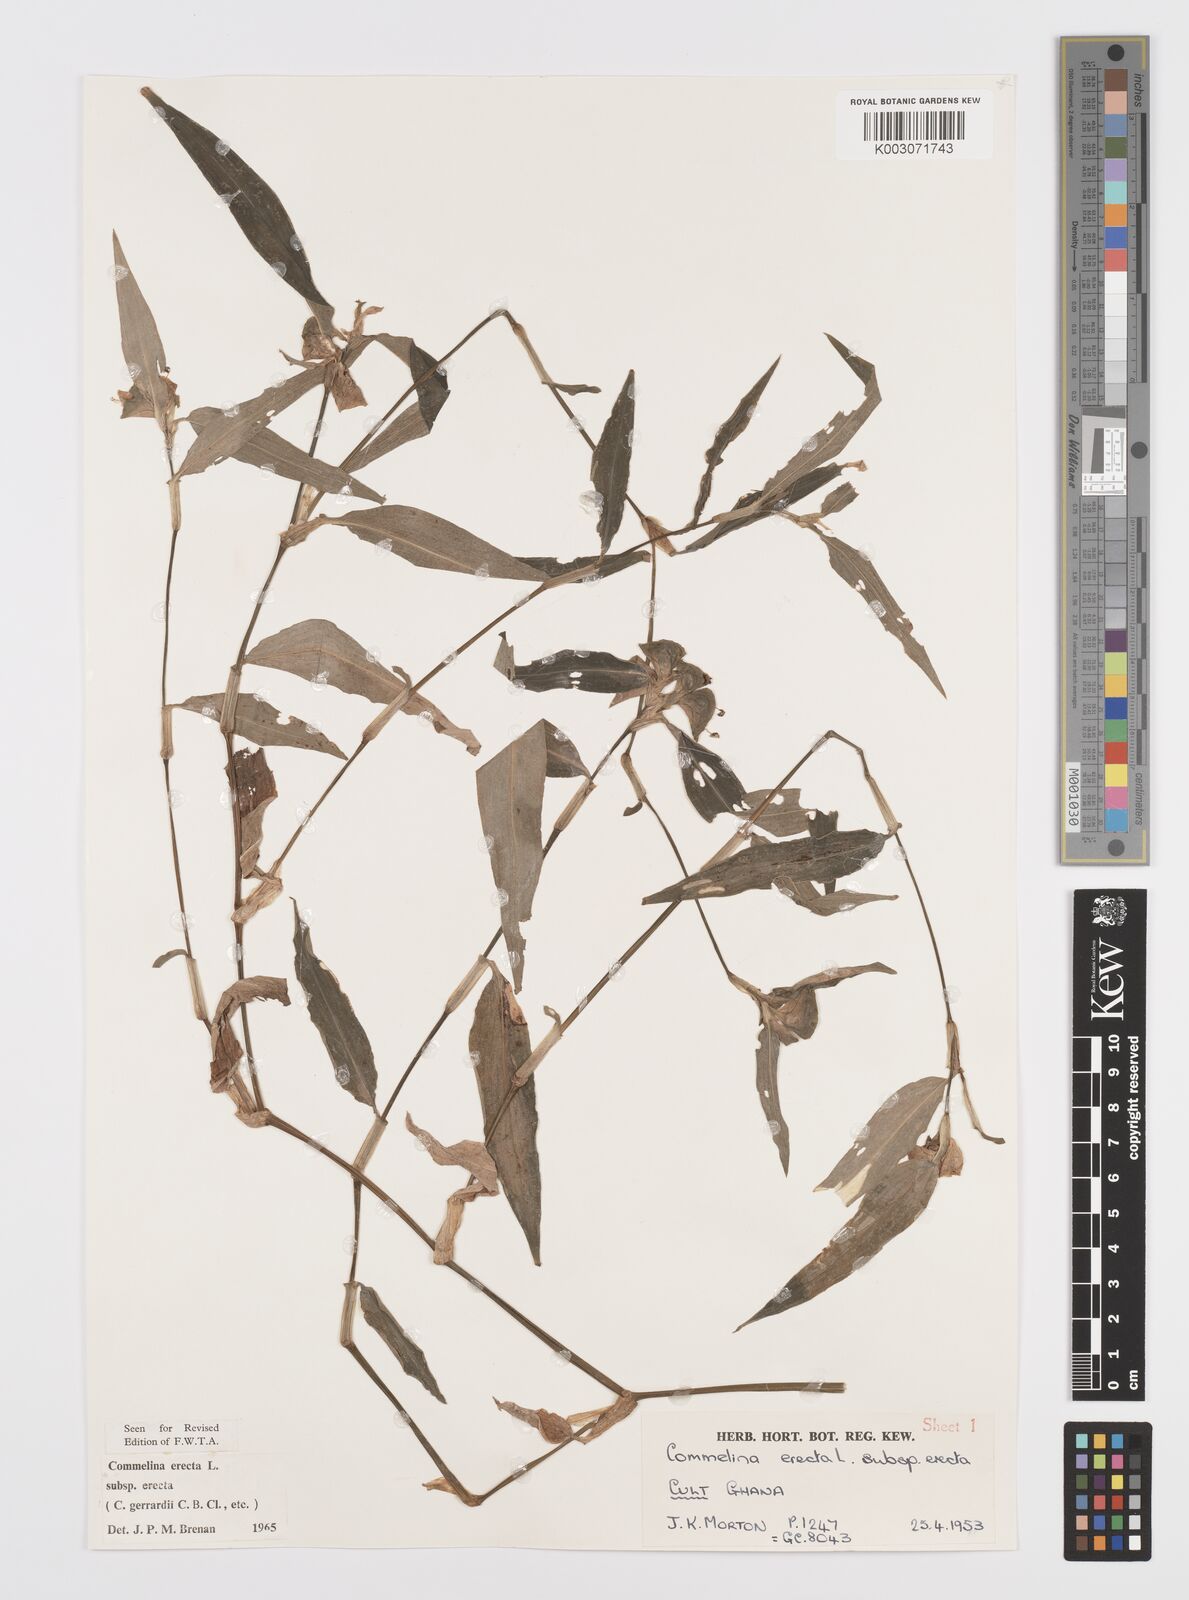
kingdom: Plantae
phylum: Tracheophyta
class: Liliopsida
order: Commelinales
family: Commelinaceae
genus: Commelina
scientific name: Commelina erecta
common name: Blousel blommetjie
